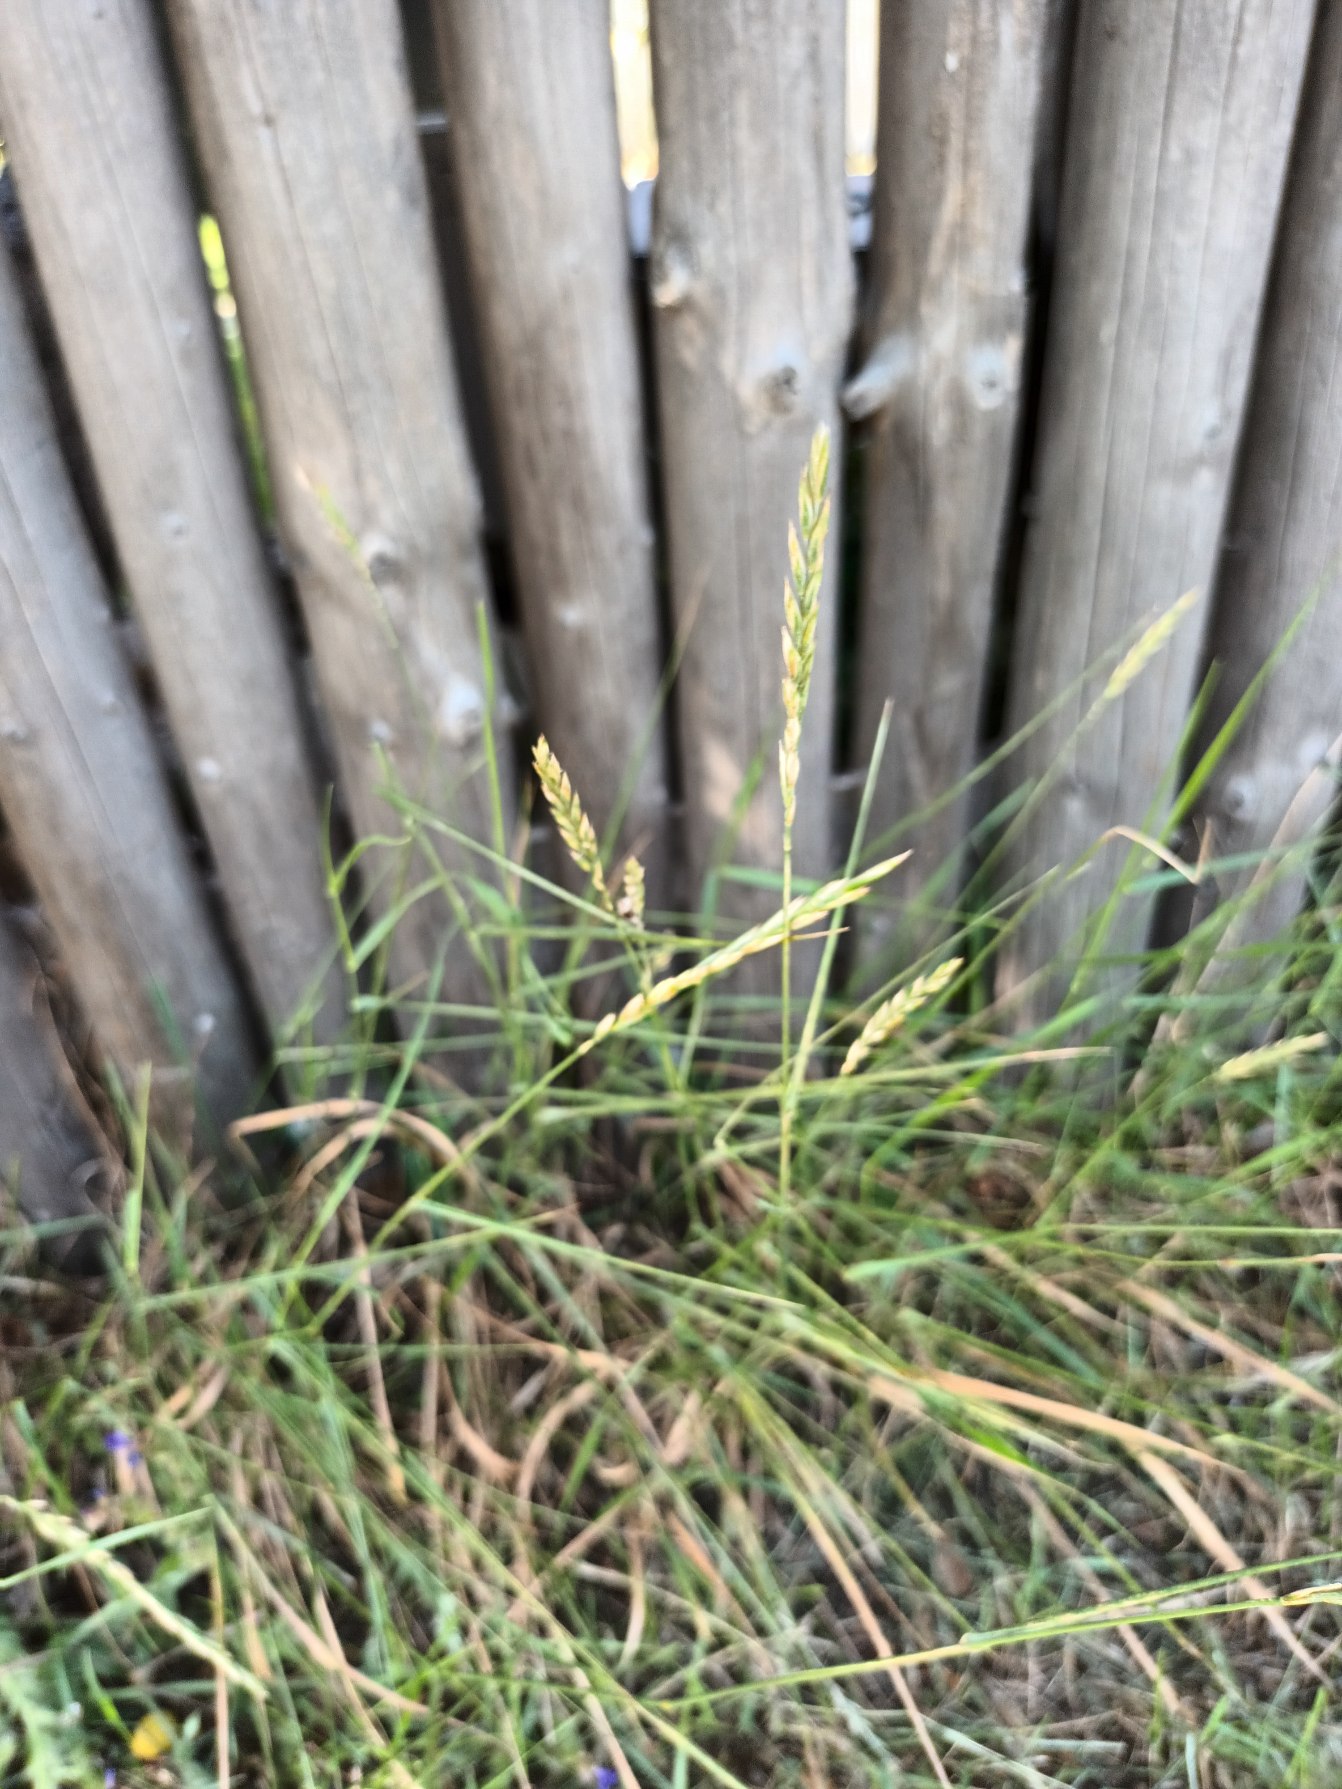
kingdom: Plantae
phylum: Tracheophyta
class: Liliopsida
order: Poales
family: Poaceae
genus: Elymus
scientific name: Elymus repens
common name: Almindelig kvik
